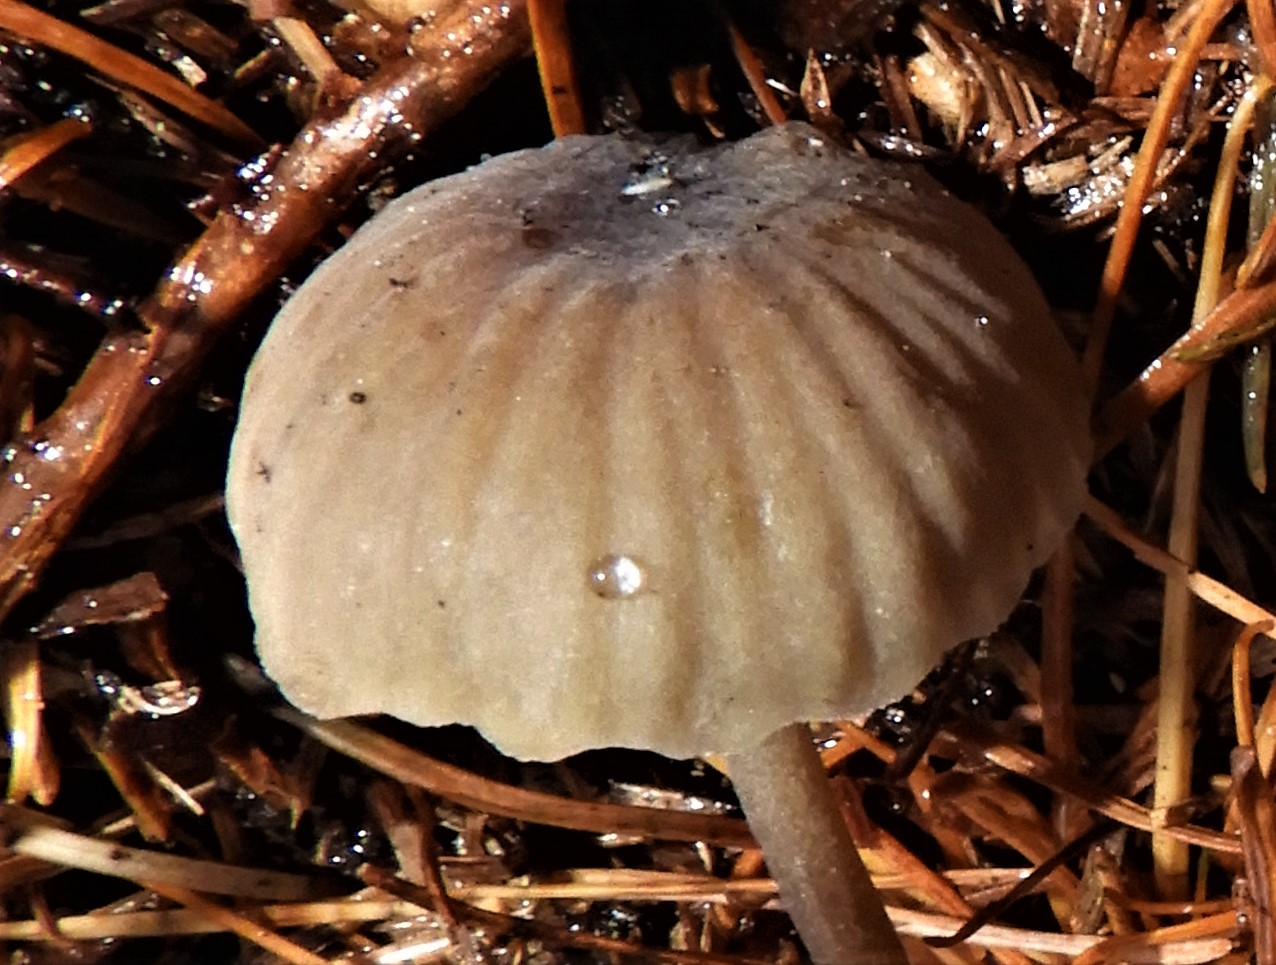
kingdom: Fungi
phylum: Basidiomycota
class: Agaricomycetes
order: Agaricales
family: Mycenaceae
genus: Mycena
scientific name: Mycena
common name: huesvamp
